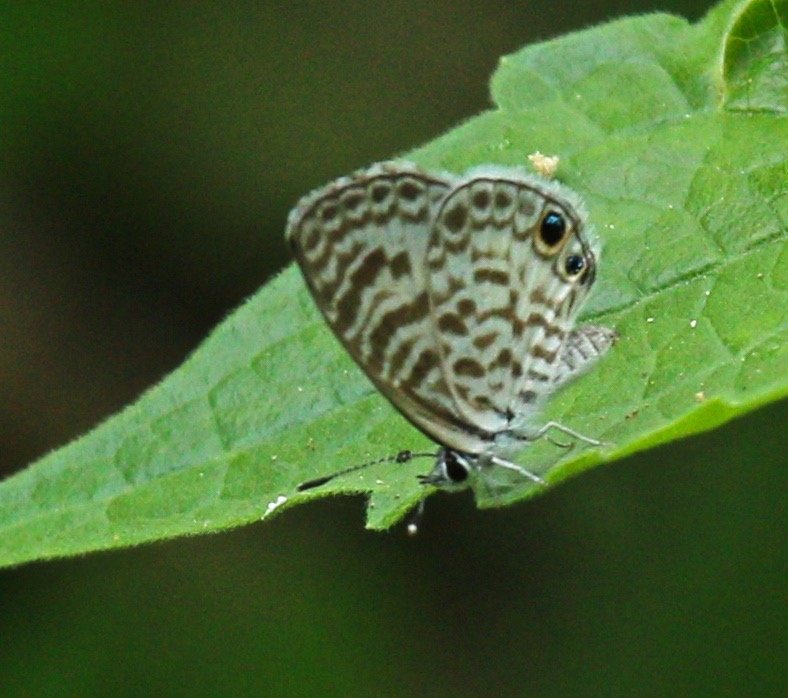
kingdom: Animalia
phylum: Arthropoda
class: Insecta
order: Lepidoptera
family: Lycaenidae
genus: Leptotes
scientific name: Leptotes cassius
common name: Cassius Blue
